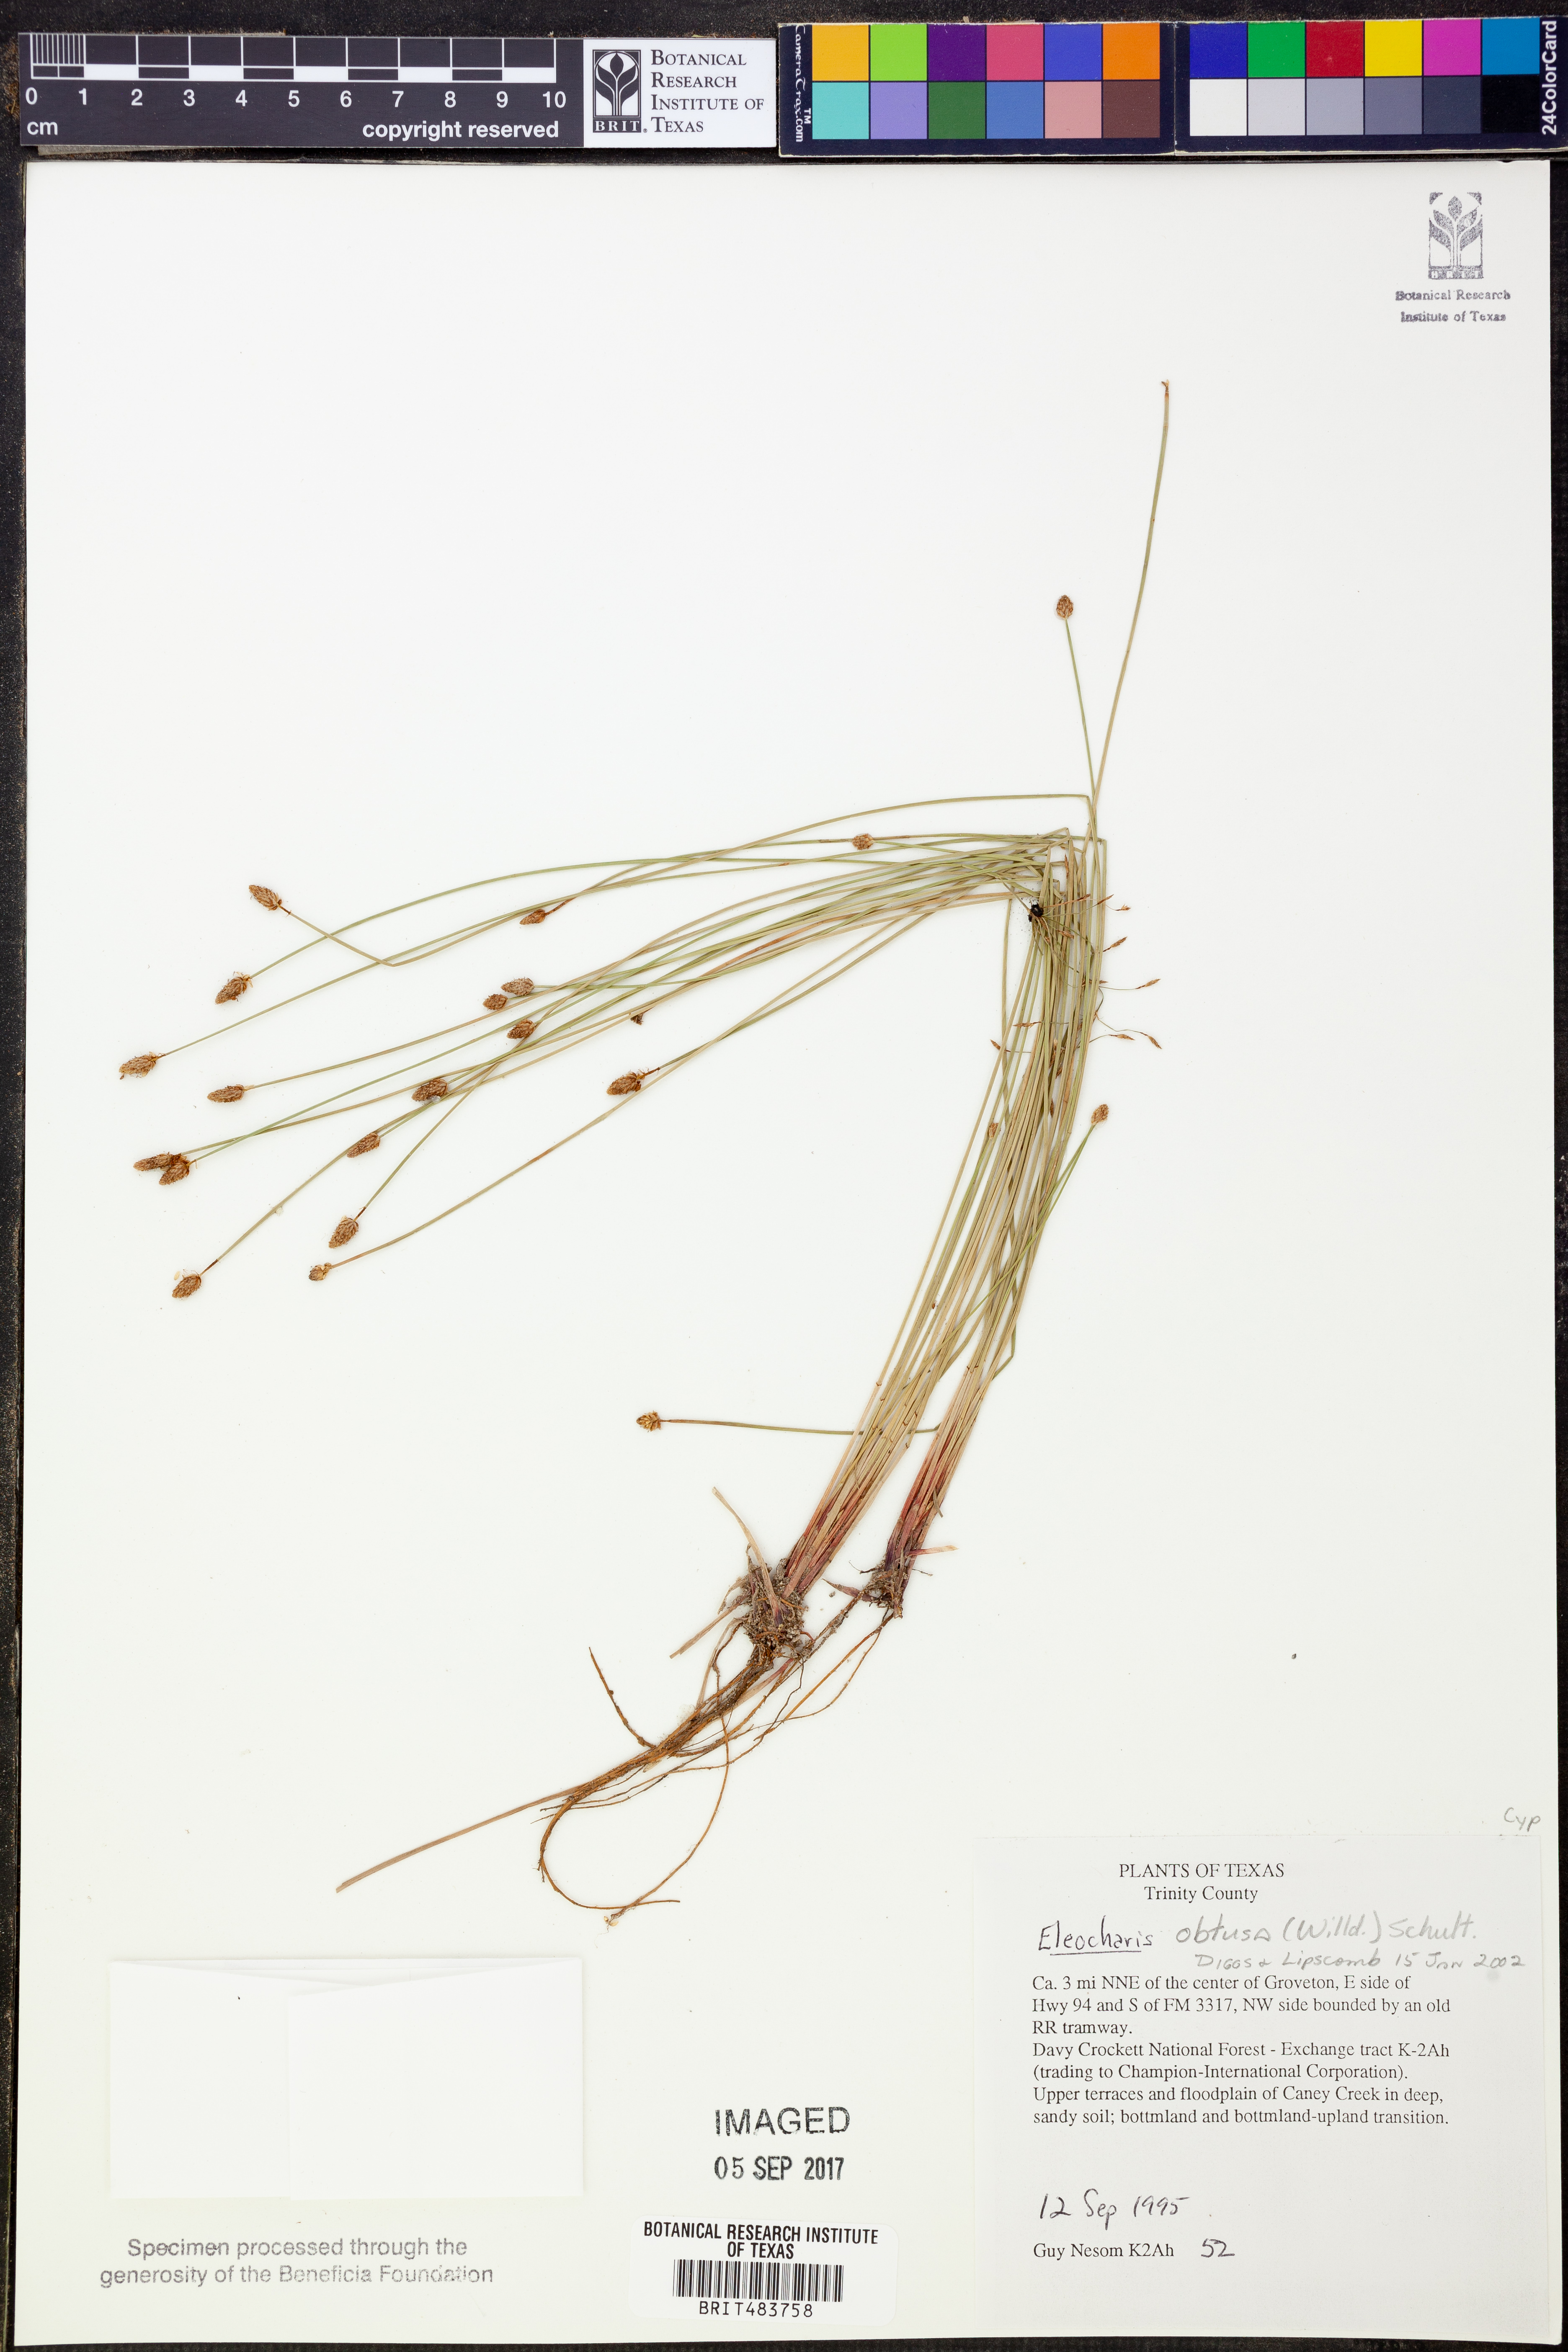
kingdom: Plantae
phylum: Tracheophyta
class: Liliopsida
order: Poales
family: Cyperaceae
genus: Eleocharis
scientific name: Eleocharis obtusa
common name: Blunt spikerush
